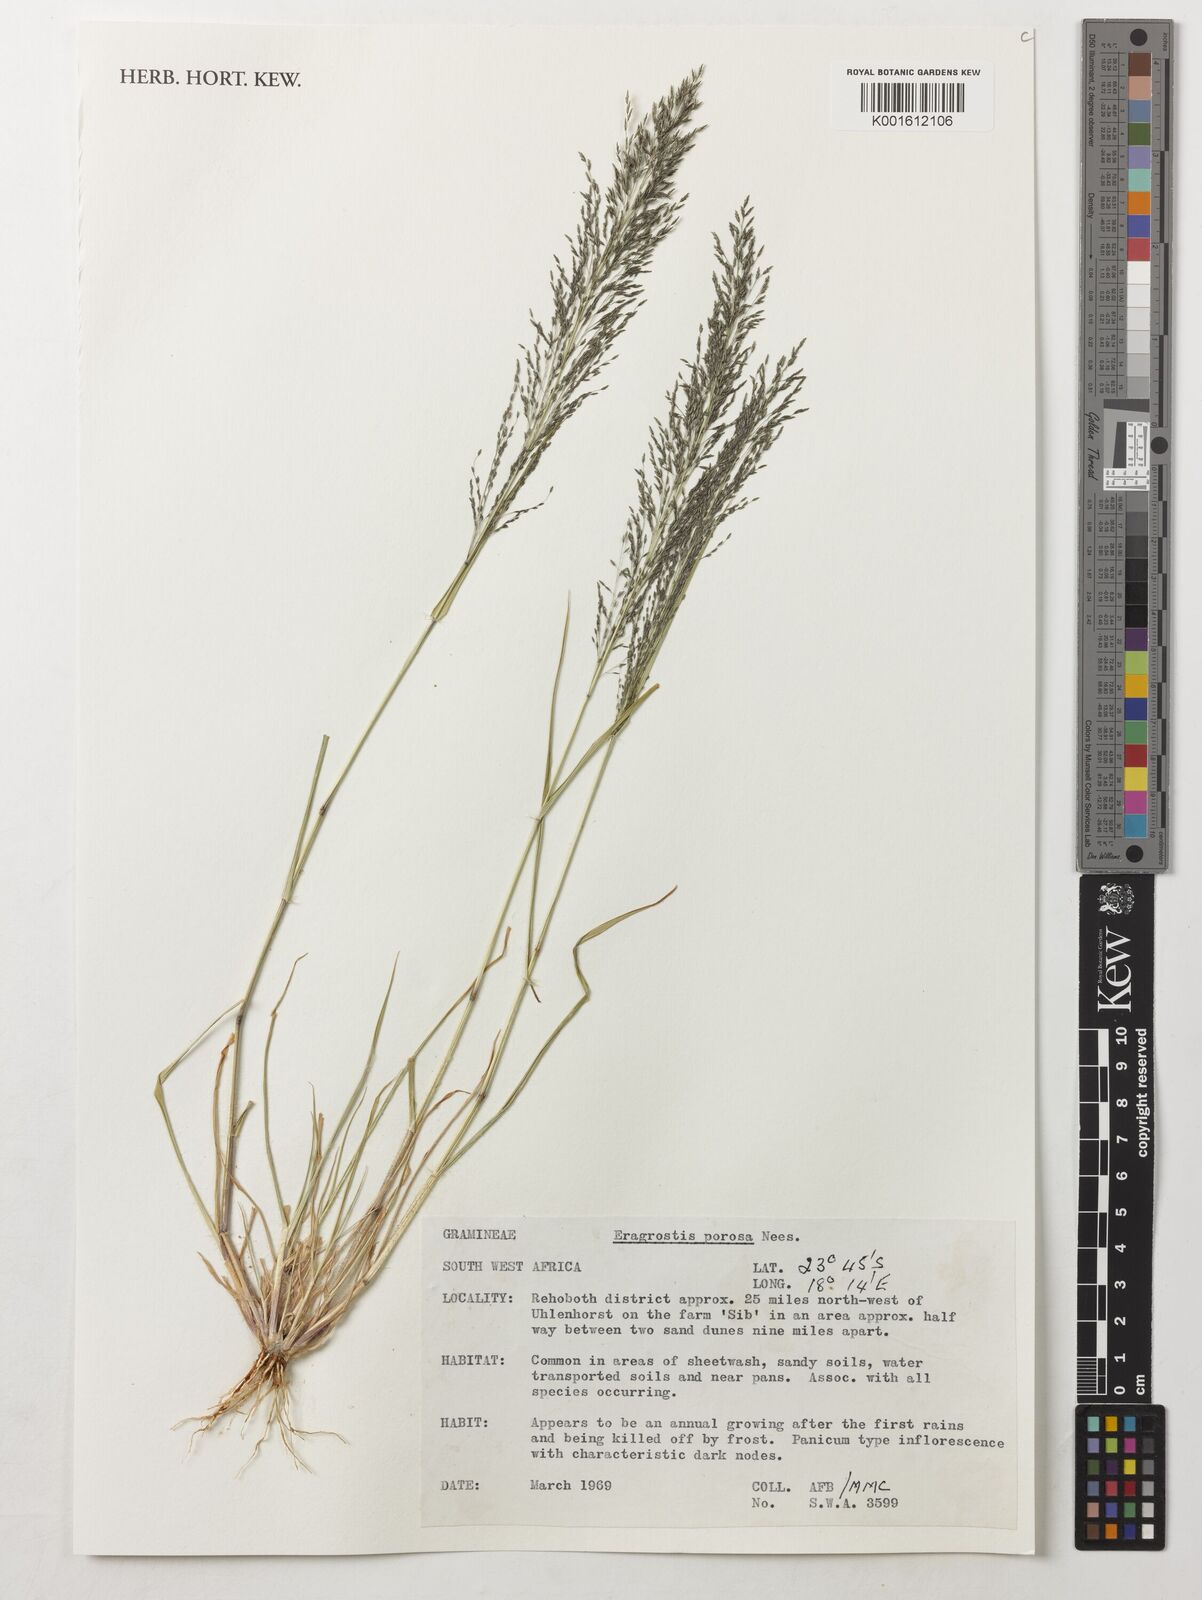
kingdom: Plantae
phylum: Tracheophyta
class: Liliopsida
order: Poales
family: Poaceae
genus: Eragrostis
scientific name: Eragrostis porosa
